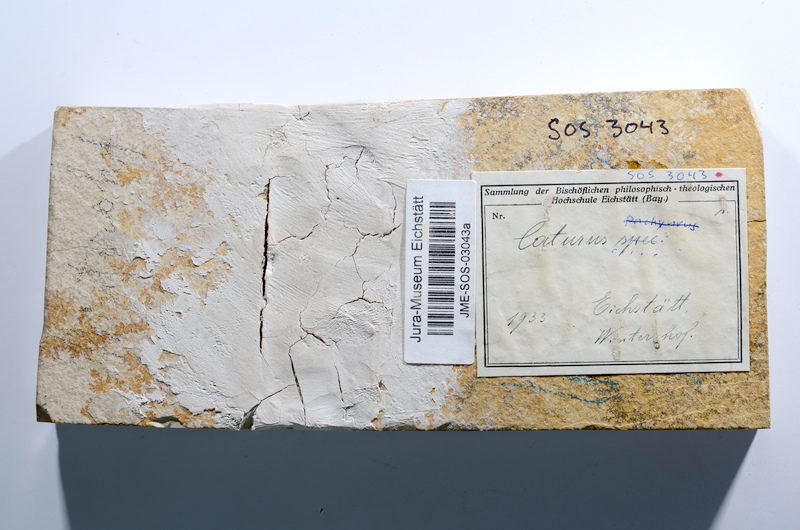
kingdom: Animalia
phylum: Chordata
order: Amiiformes
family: Caturidae
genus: Caturus
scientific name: Caturus
